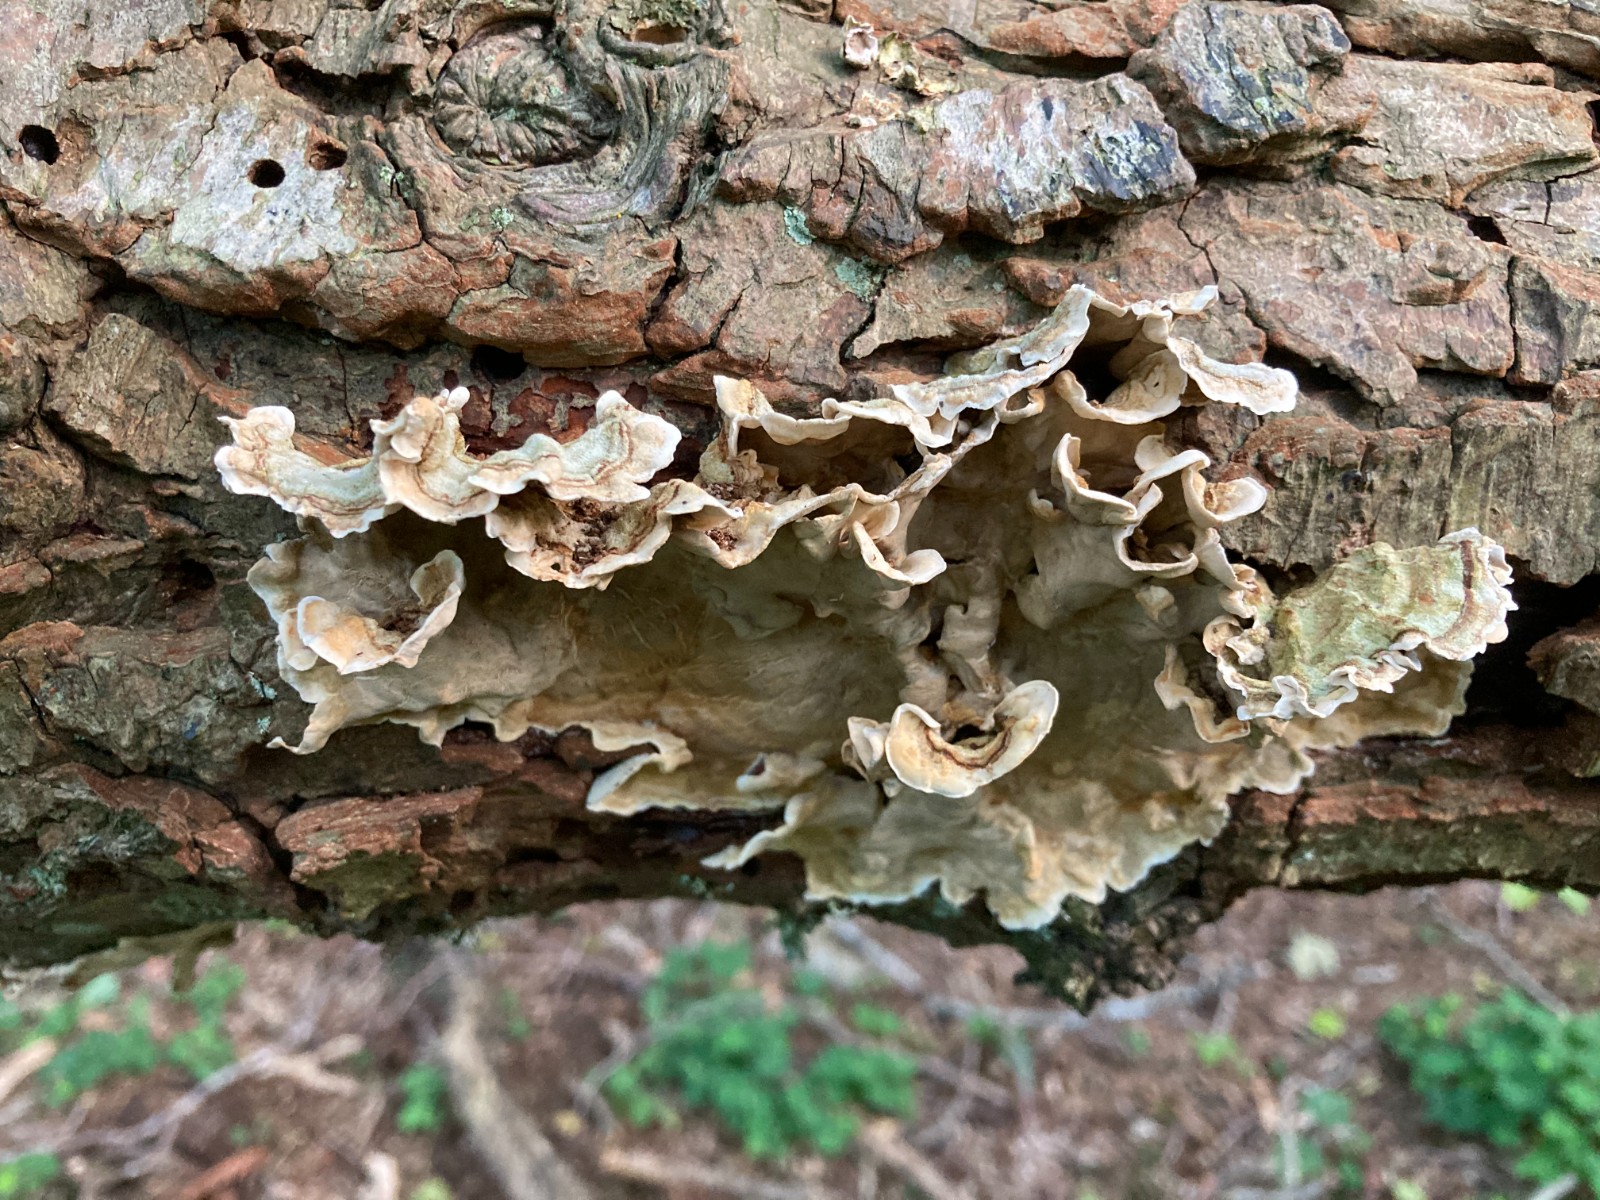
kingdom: Fungi
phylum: Basidiomycota
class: Agaricomycetes
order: Russulales
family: Stereaceae
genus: Stereum
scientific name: Stereum subtomentosum
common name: smuk lædersvamp
